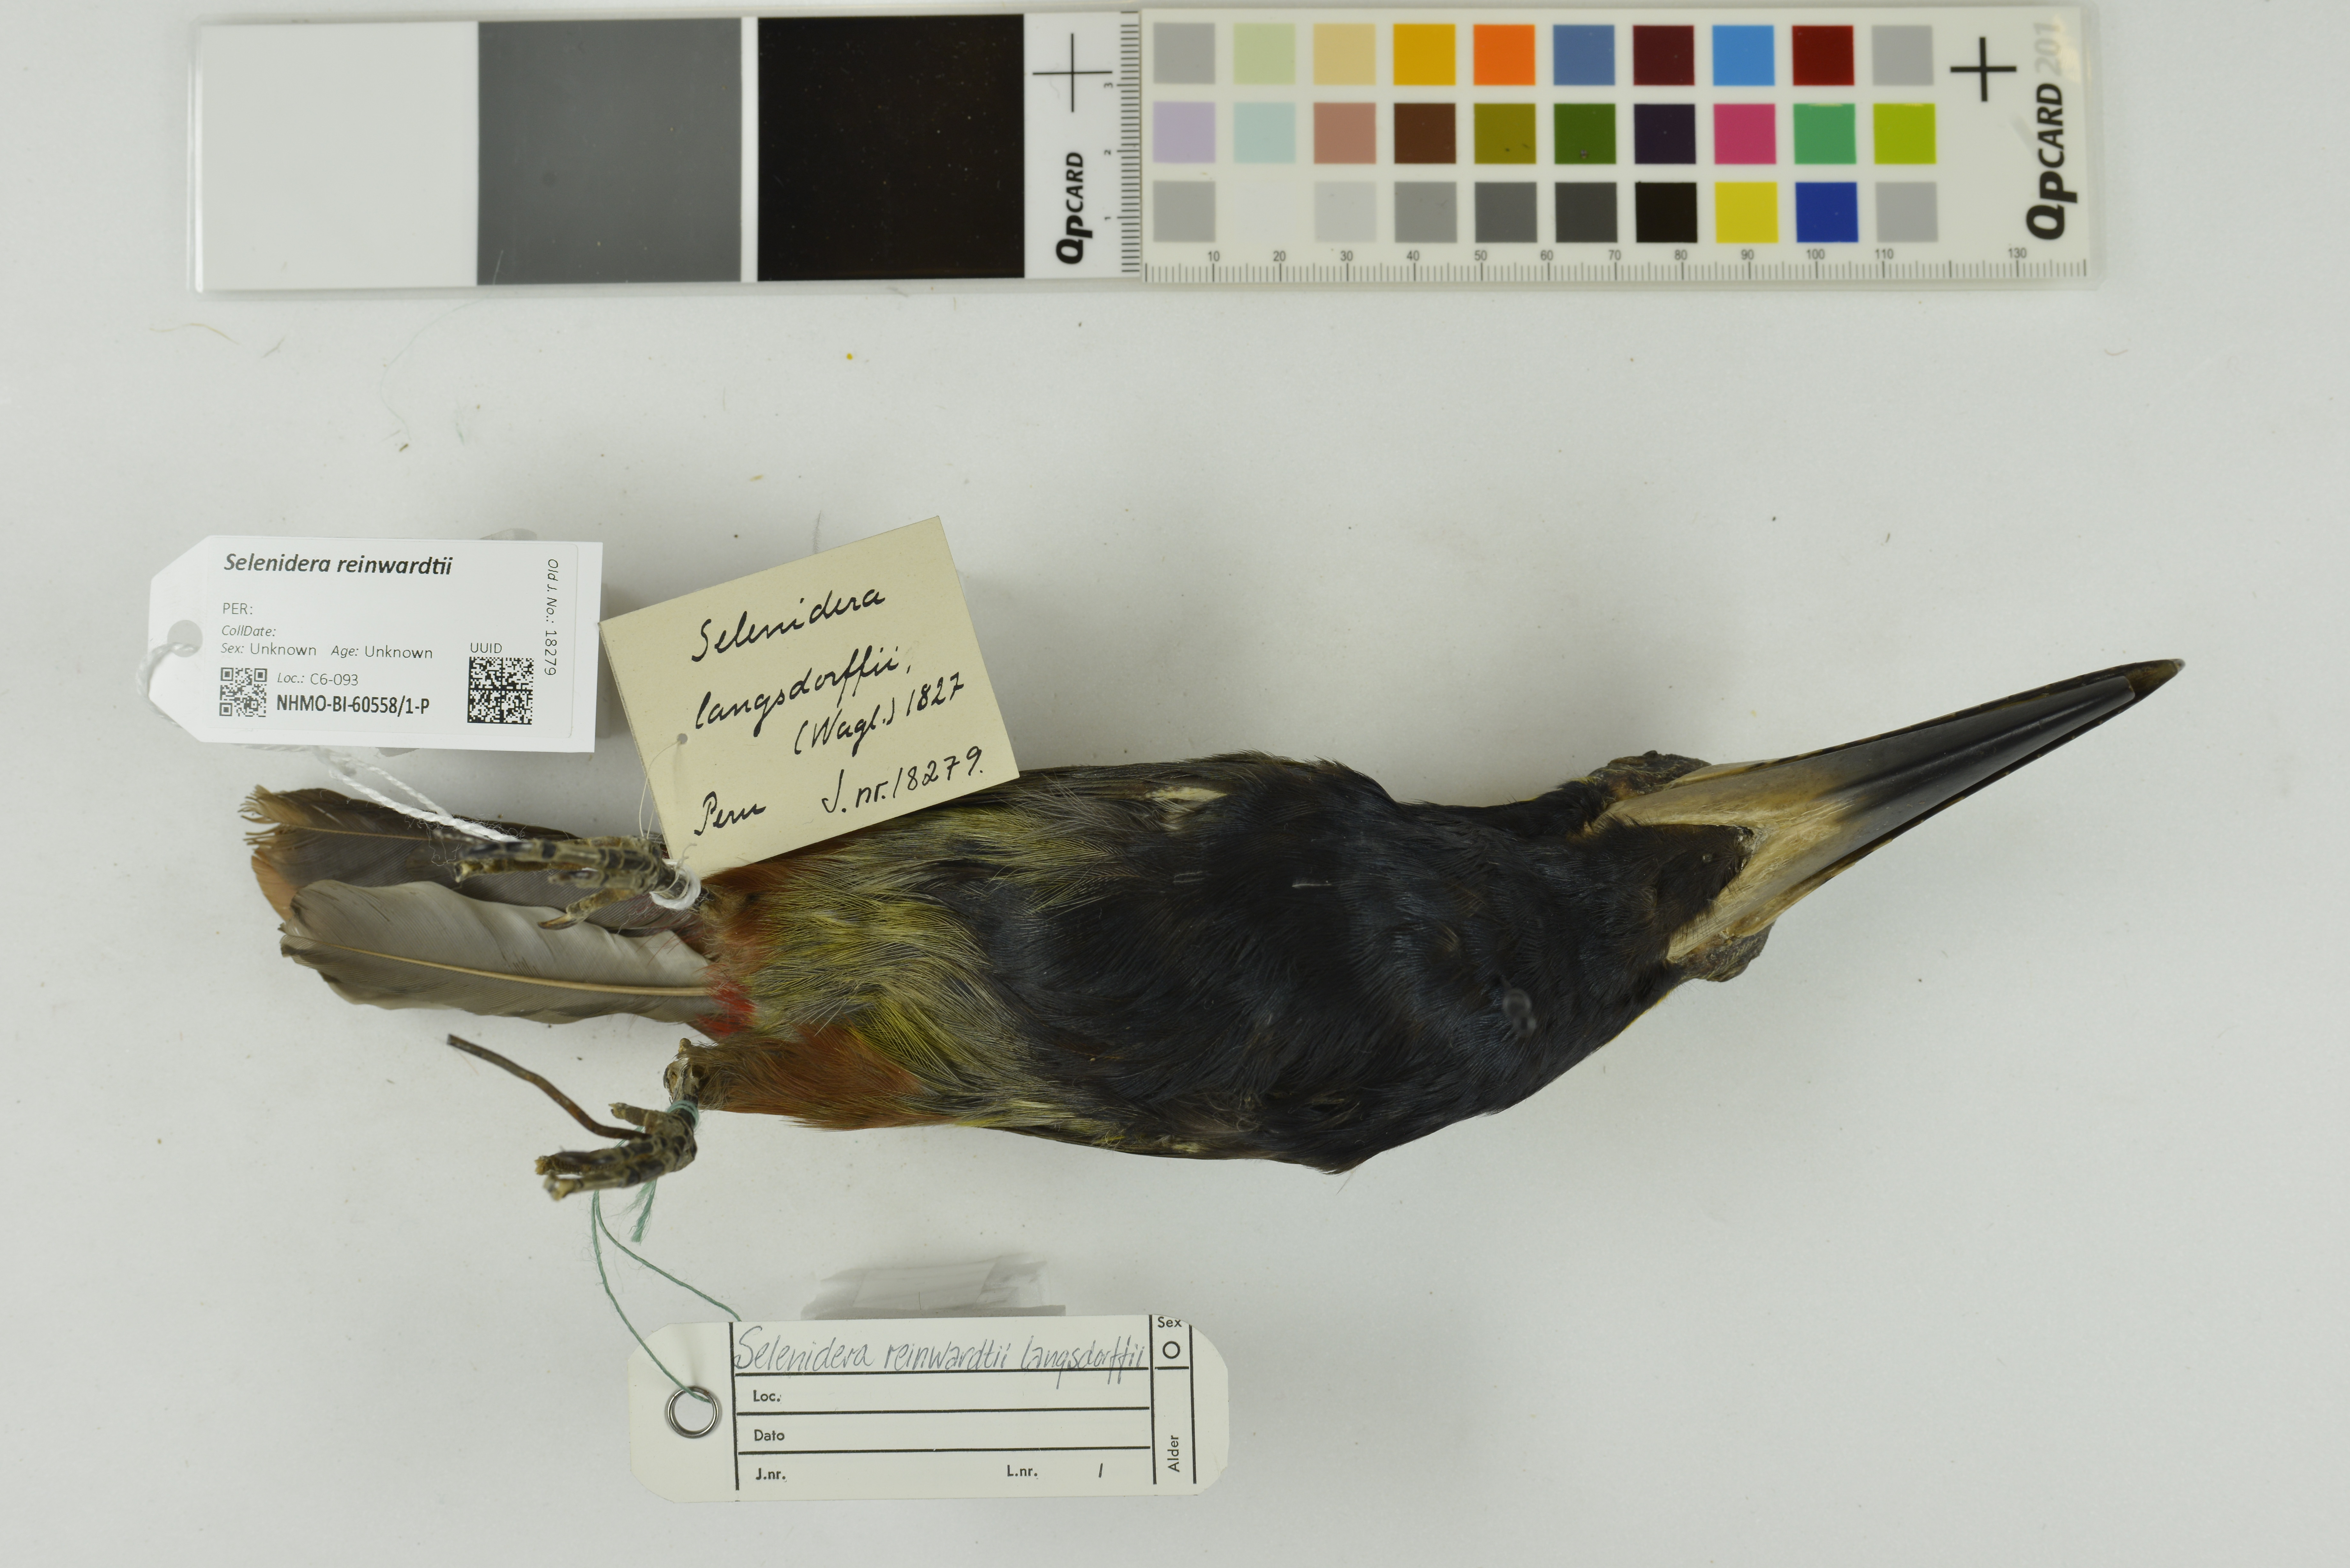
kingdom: Animalia
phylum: Chordata
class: Aves
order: Piciformes
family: Ramphastidae
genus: Selenidera
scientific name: Selenidera reinwardtii
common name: Golden-collared toucanet
